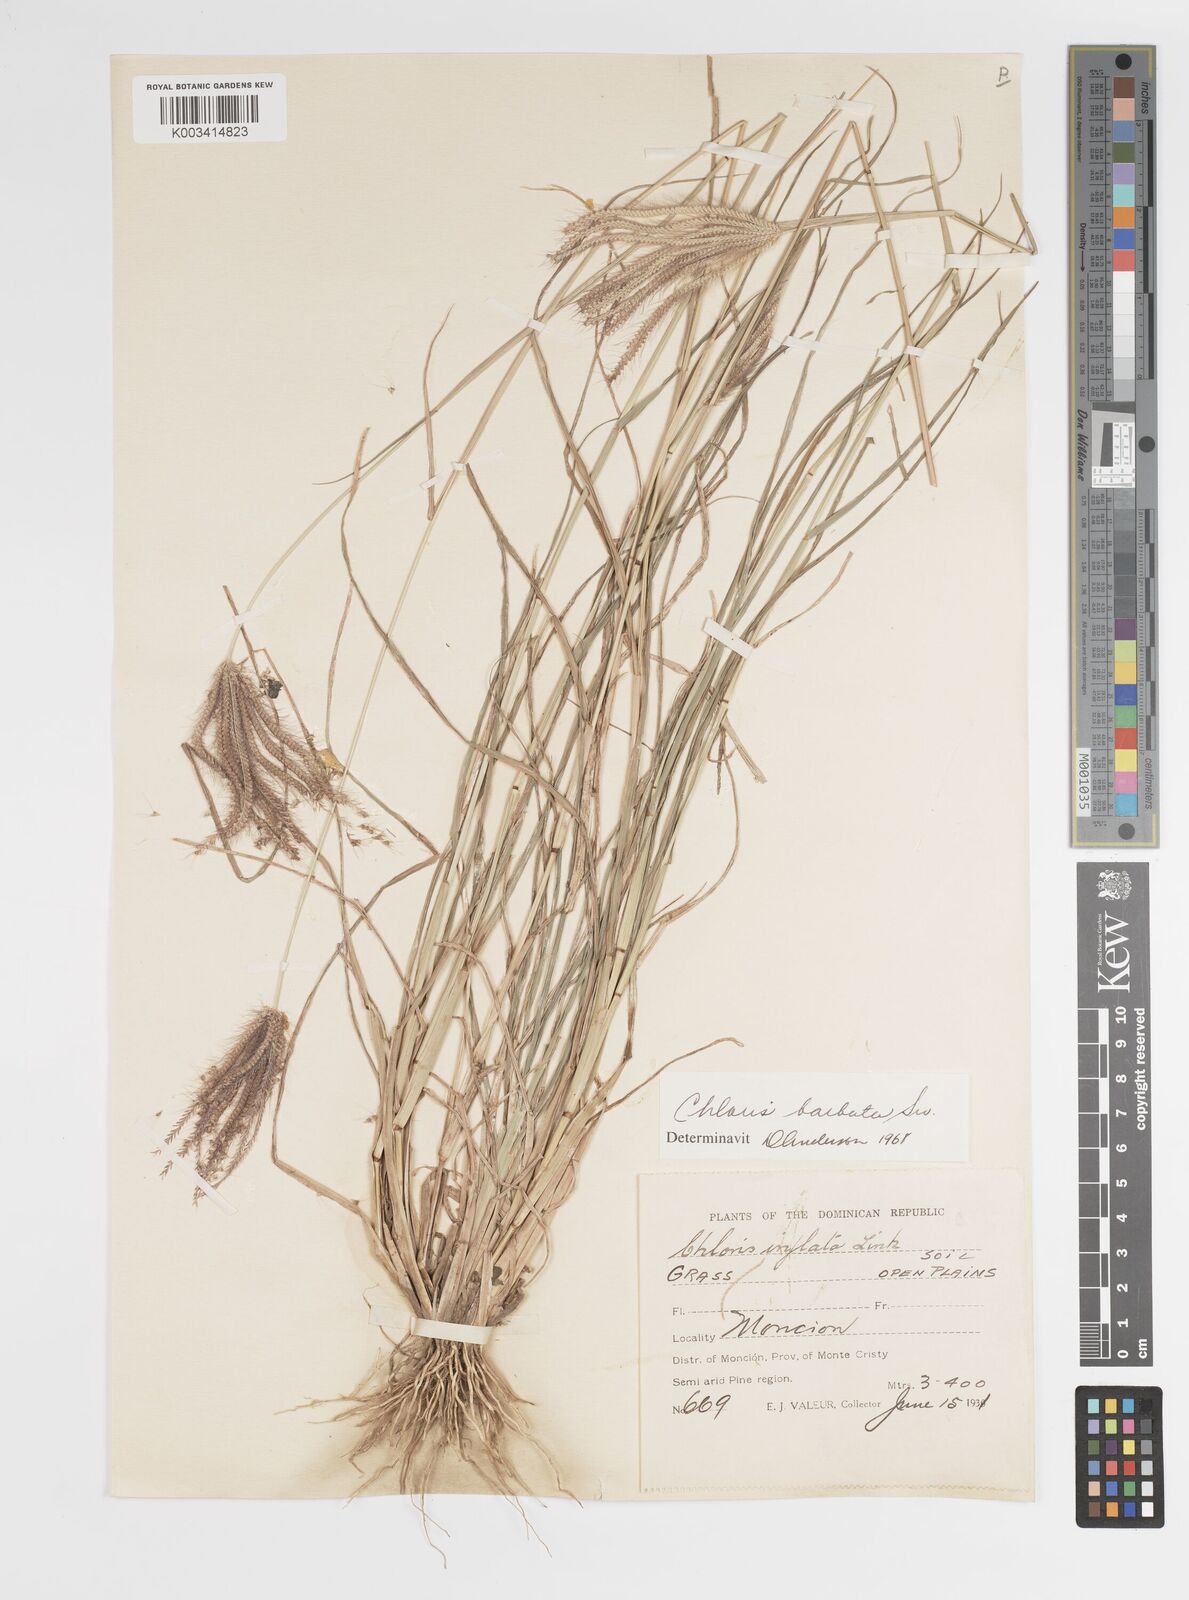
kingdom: Plantae
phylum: Tracheophyta
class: Liliopsida
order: Poales
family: Poaceae
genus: Chloris
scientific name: Chloris barbata
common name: Swollen fingergrass
